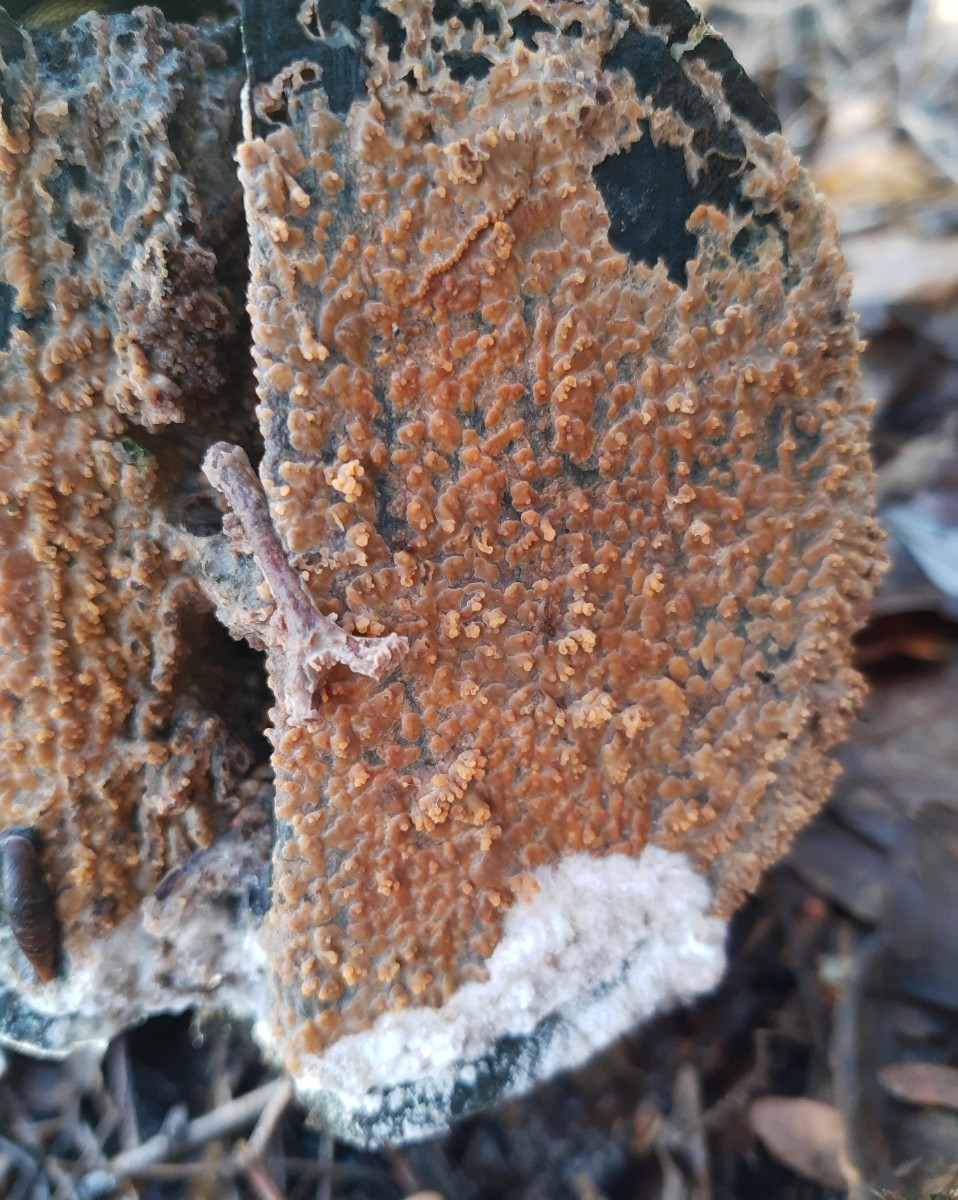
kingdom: Fungi
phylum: Basidiomycota
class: Agaricomycetes
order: Polyporales
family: Meruliaceae
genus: Phlebia
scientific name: Phlebia radiata
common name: stråle-åresvamp
